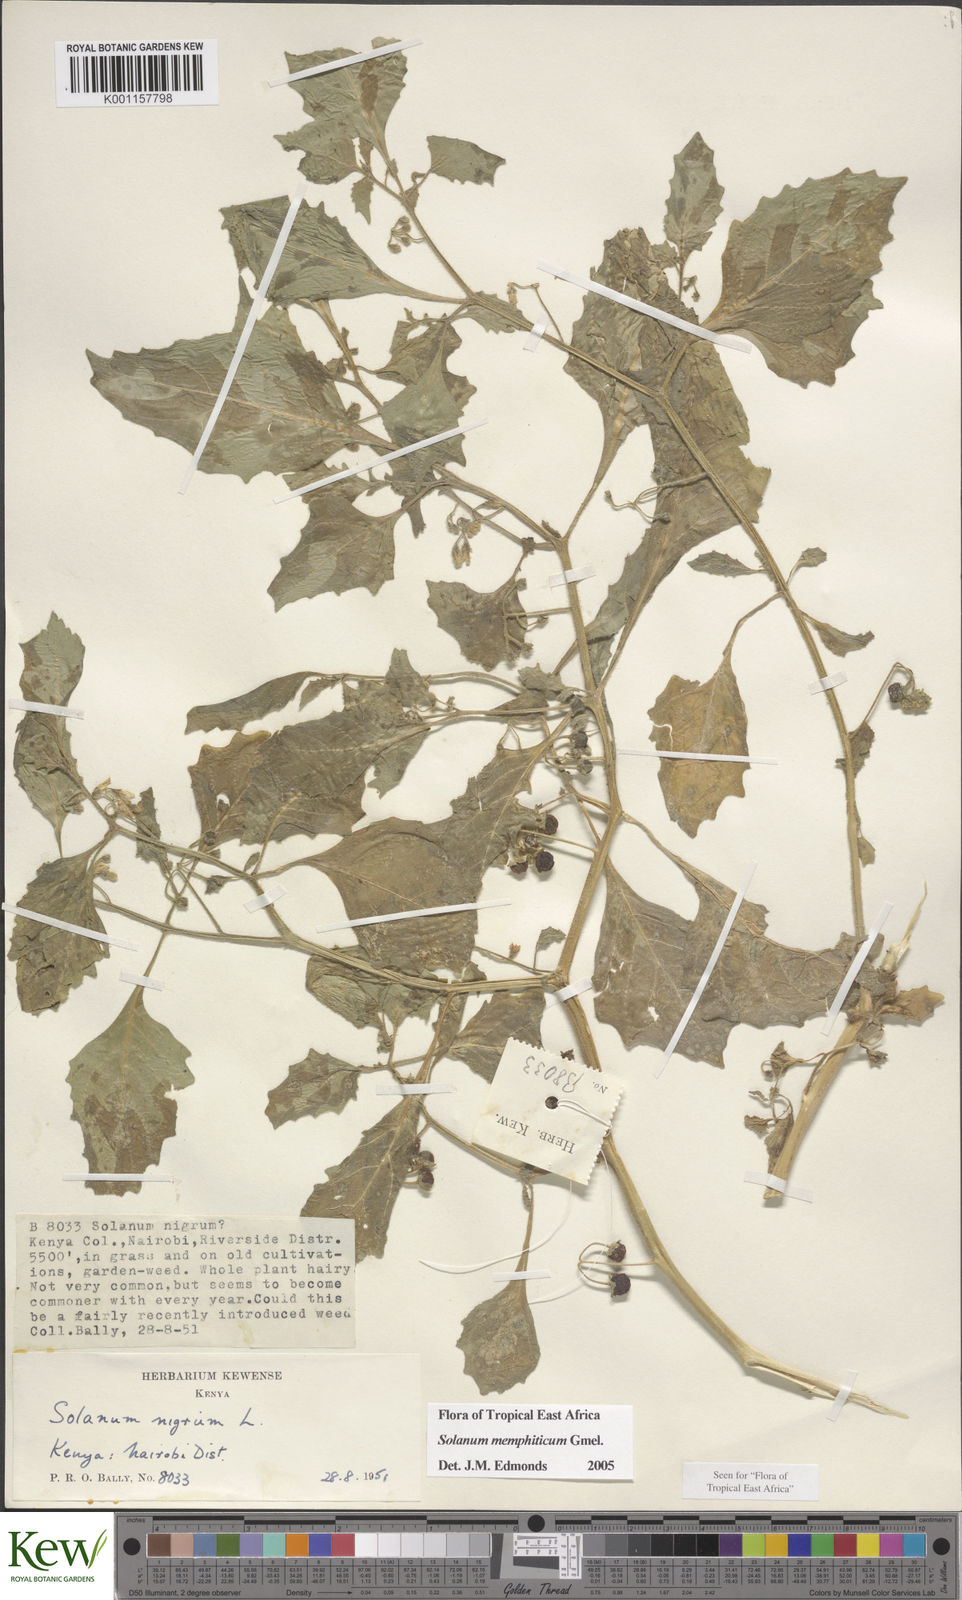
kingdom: Plantae
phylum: Tracheophyta
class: Magnoliopsida
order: Solanales
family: Solanaceae
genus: Solanum
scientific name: Solanum memphiticum
